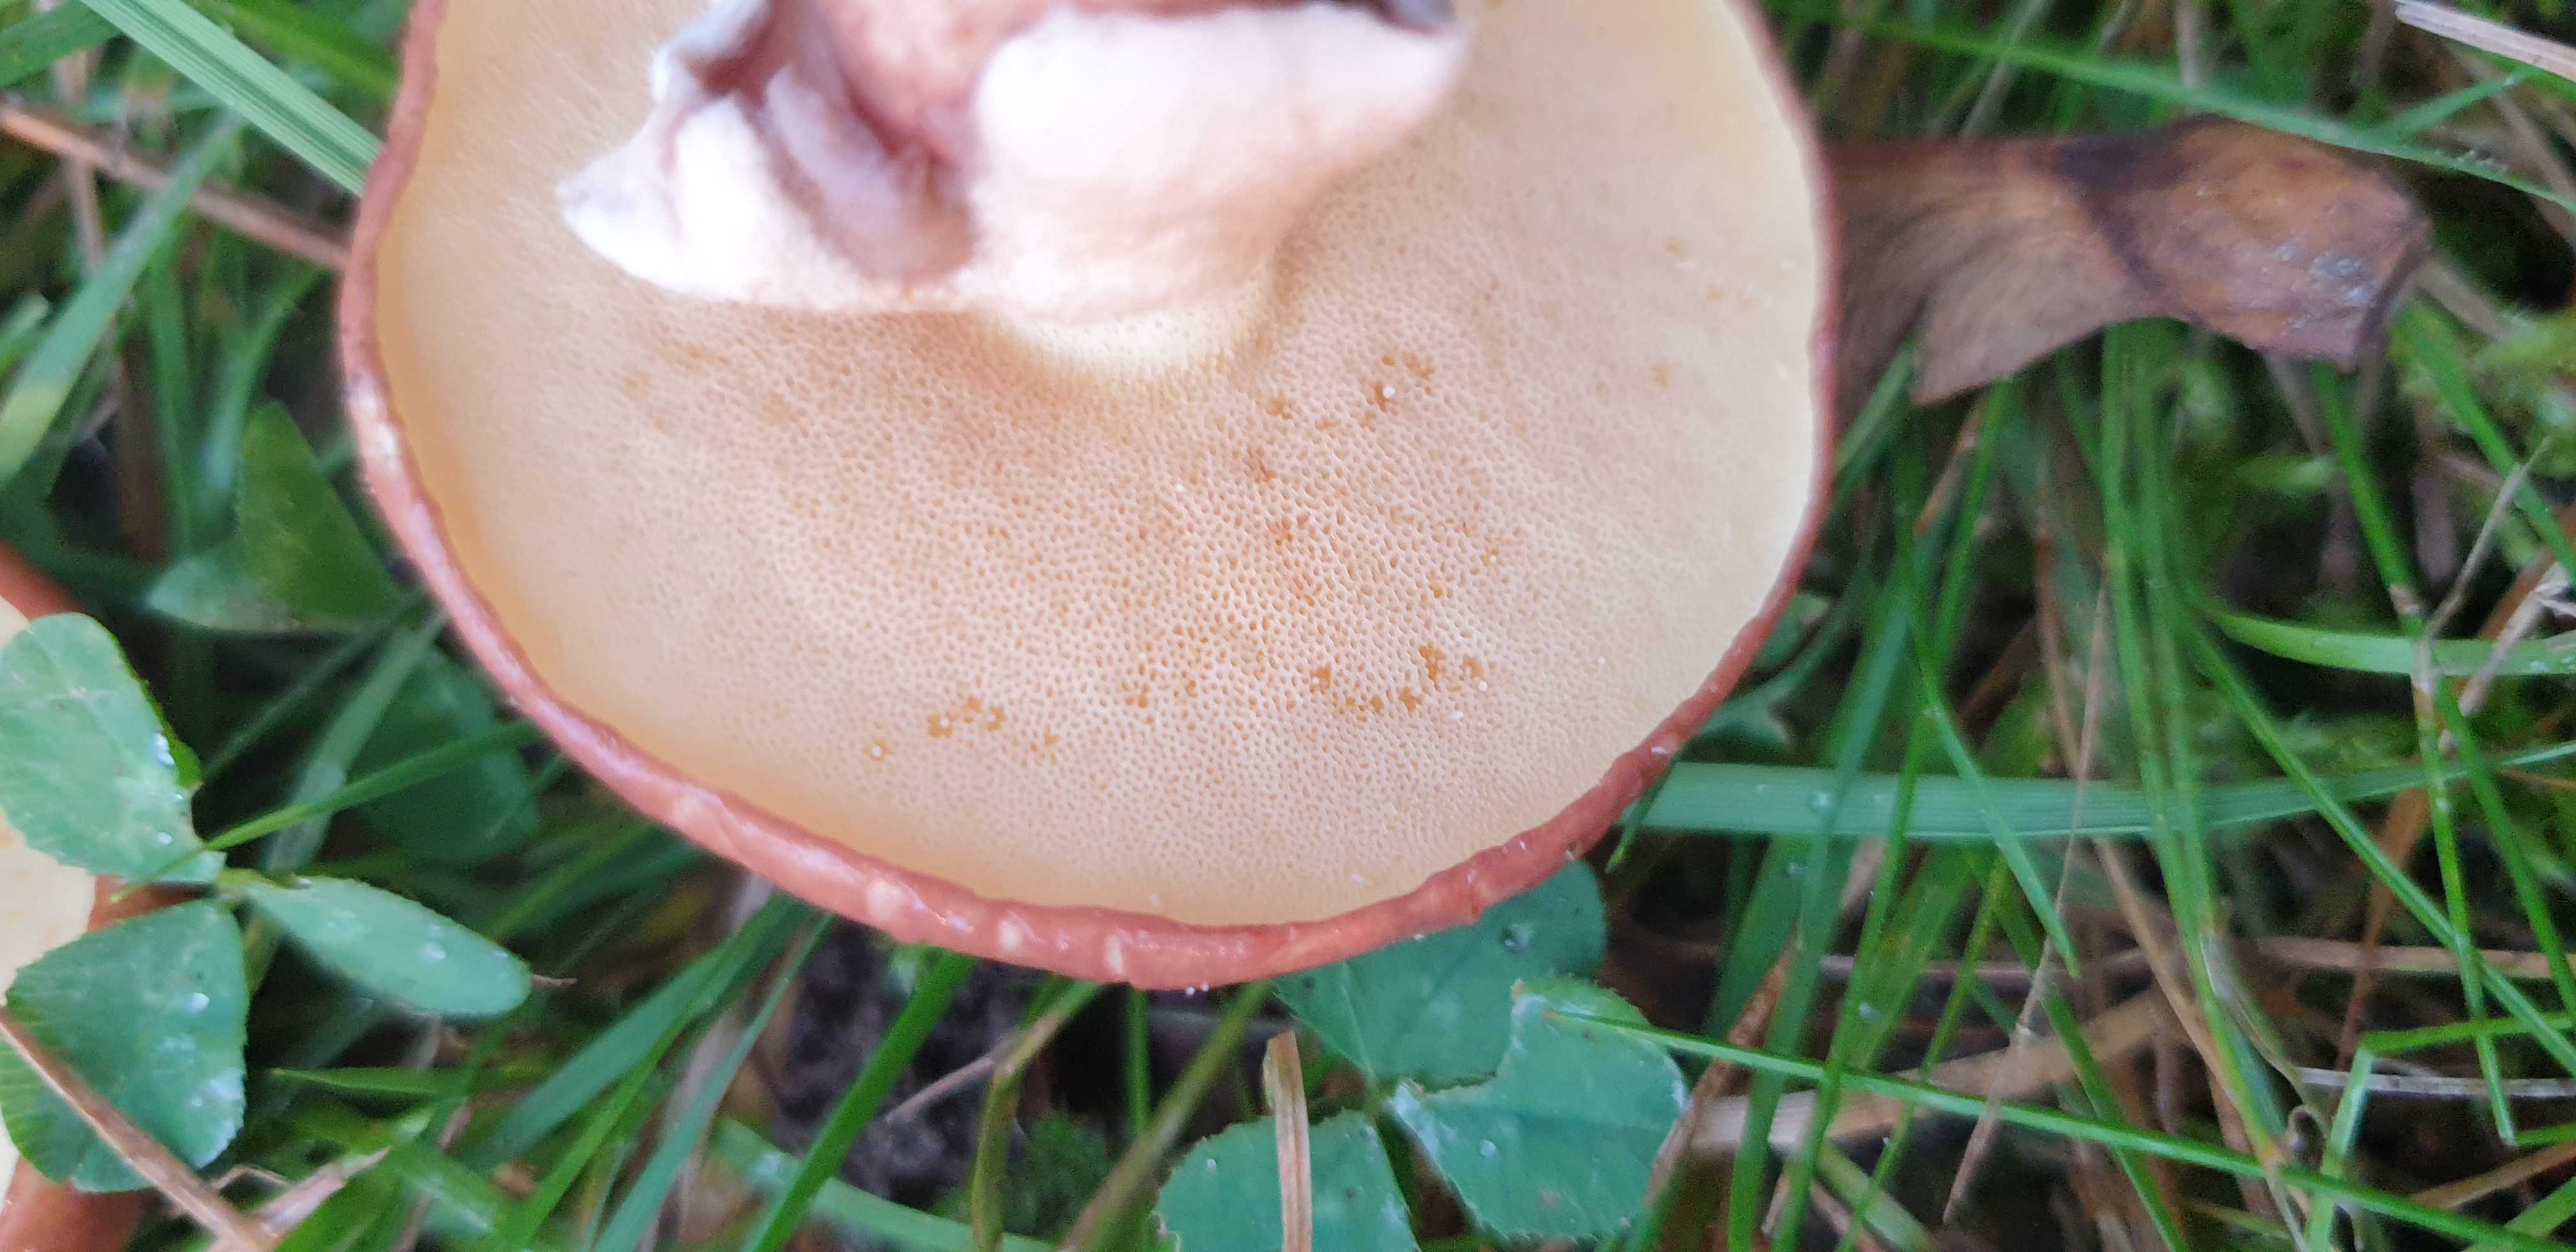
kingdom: Fungi
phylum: Basidiomycota
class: Agaricomycetes
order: Boletales
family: Suillaceae
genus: Suillus
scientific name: Suillus grevillei
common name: Larch bolete
